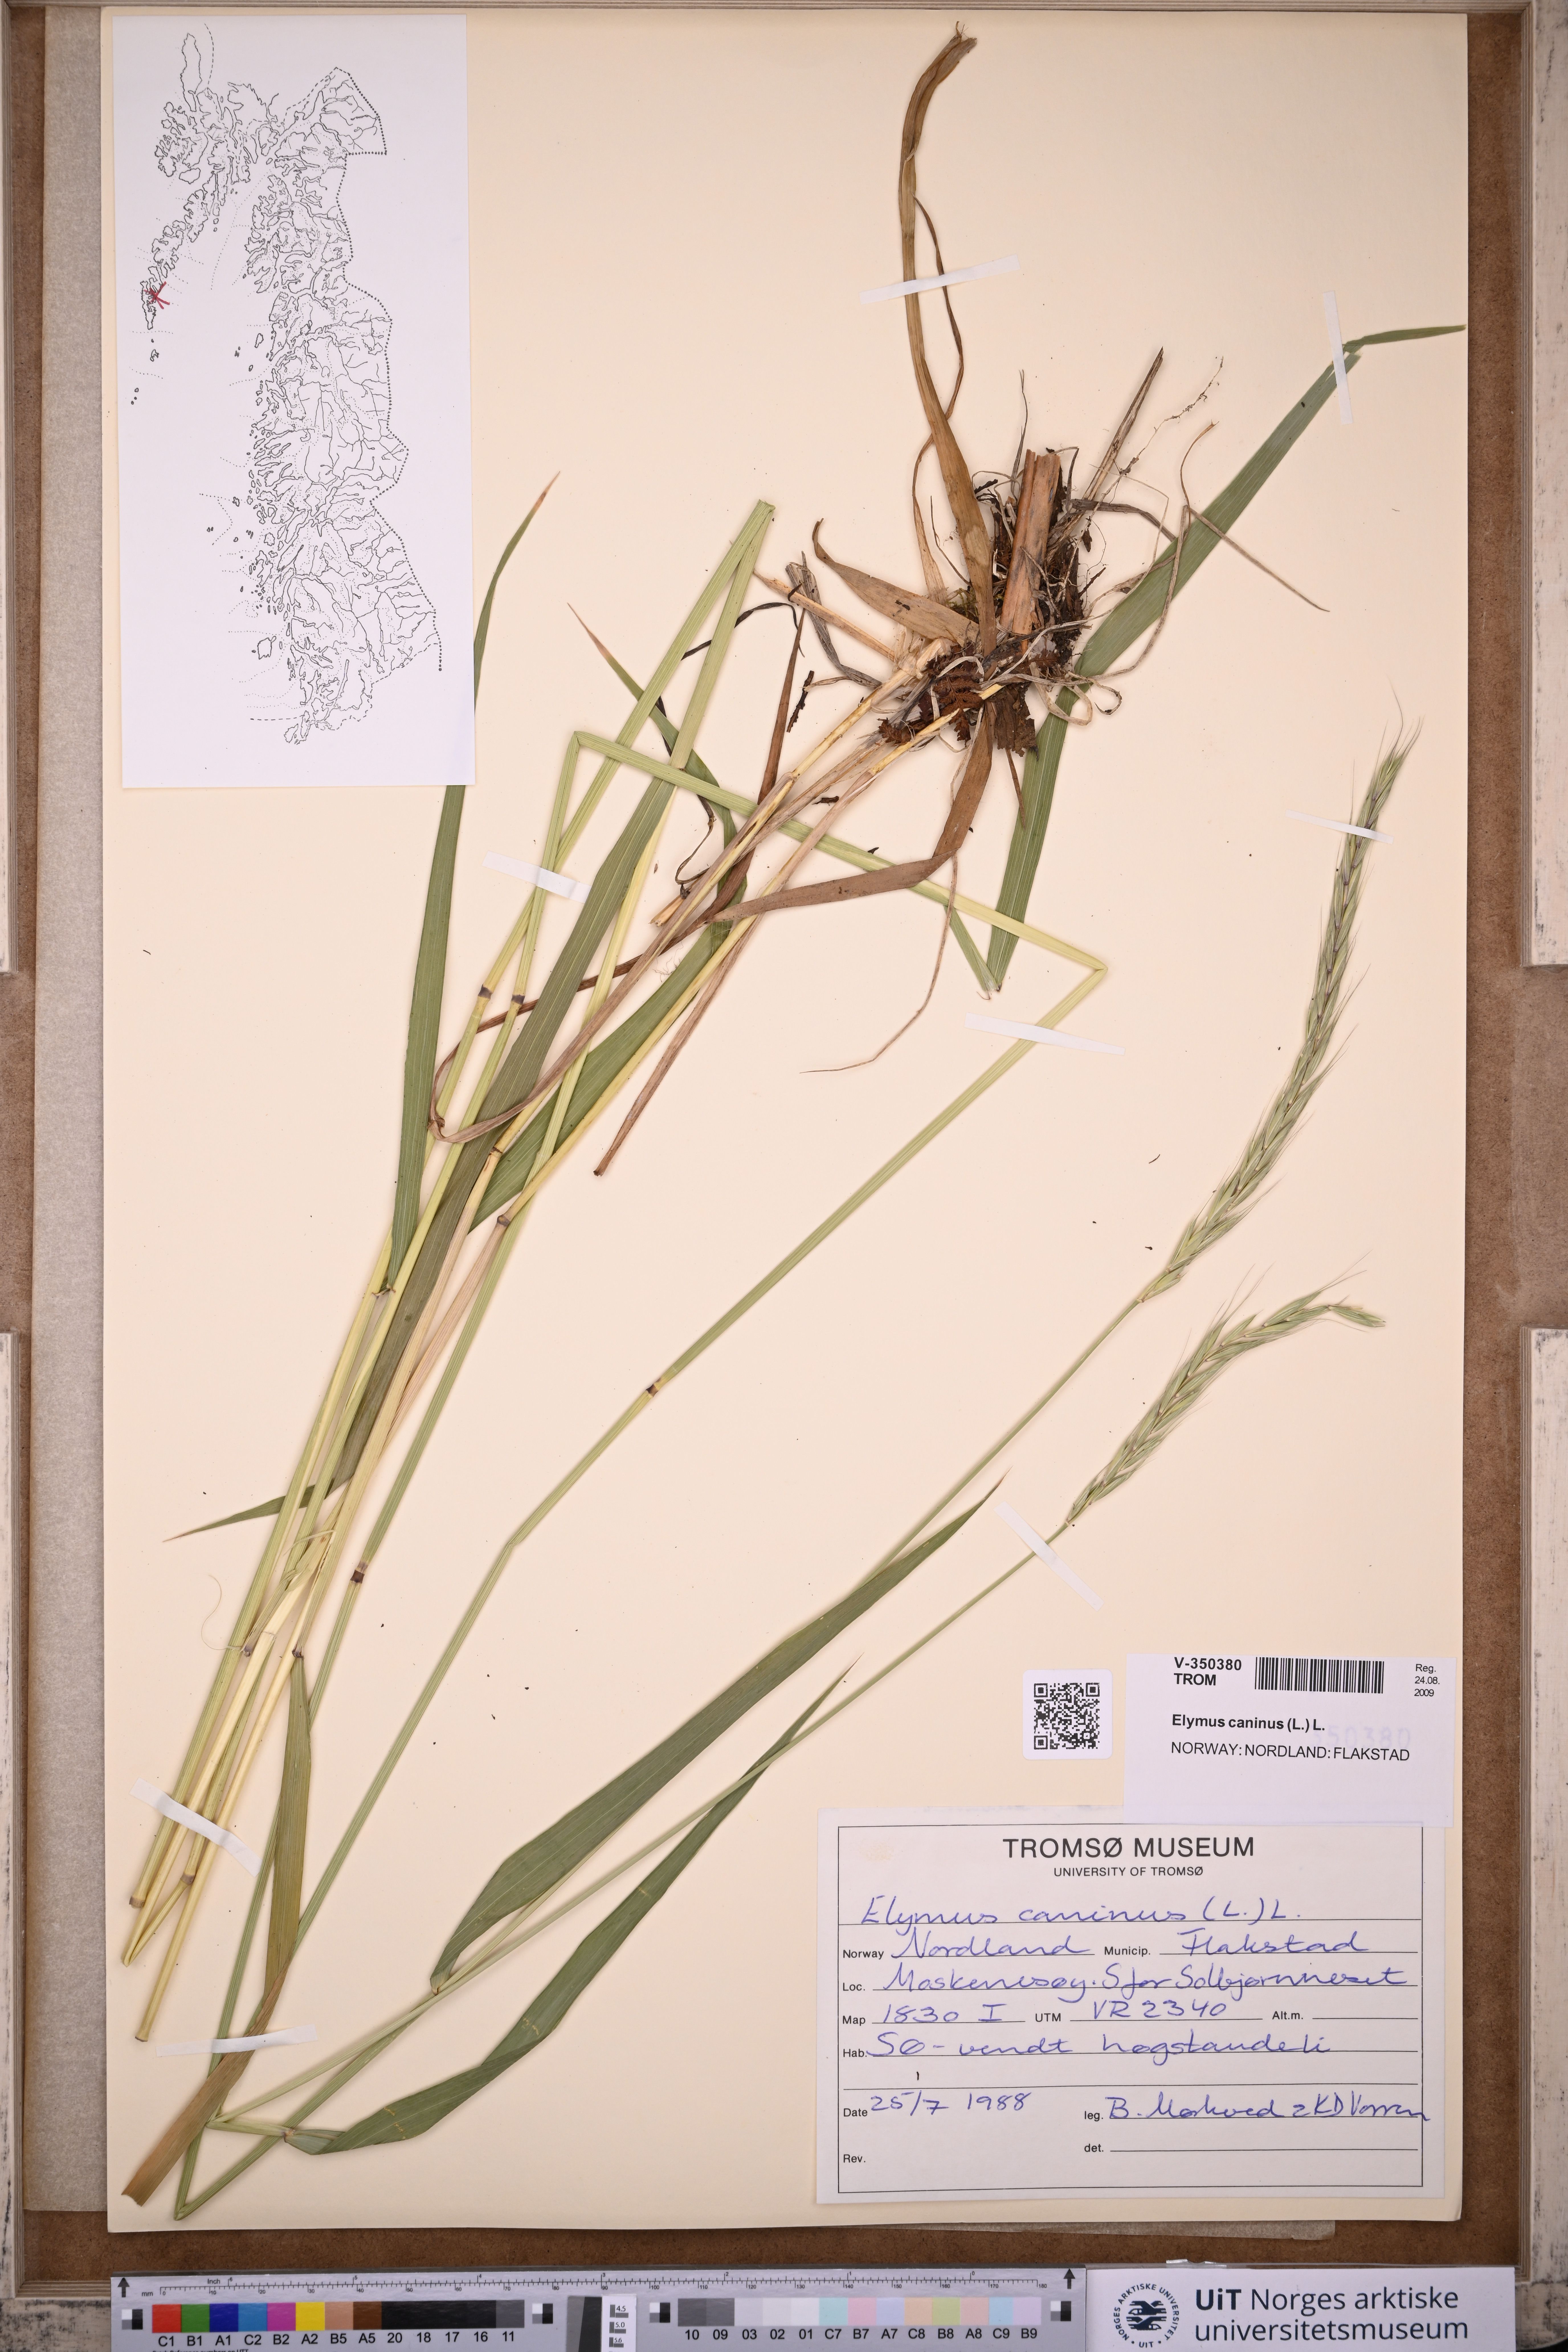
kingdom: Plantae
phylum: Tracheophyta
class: Liliopsida
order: Poales
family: Poaceae
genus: Elymus
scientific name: Elymus caninus
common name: Bearded couch
